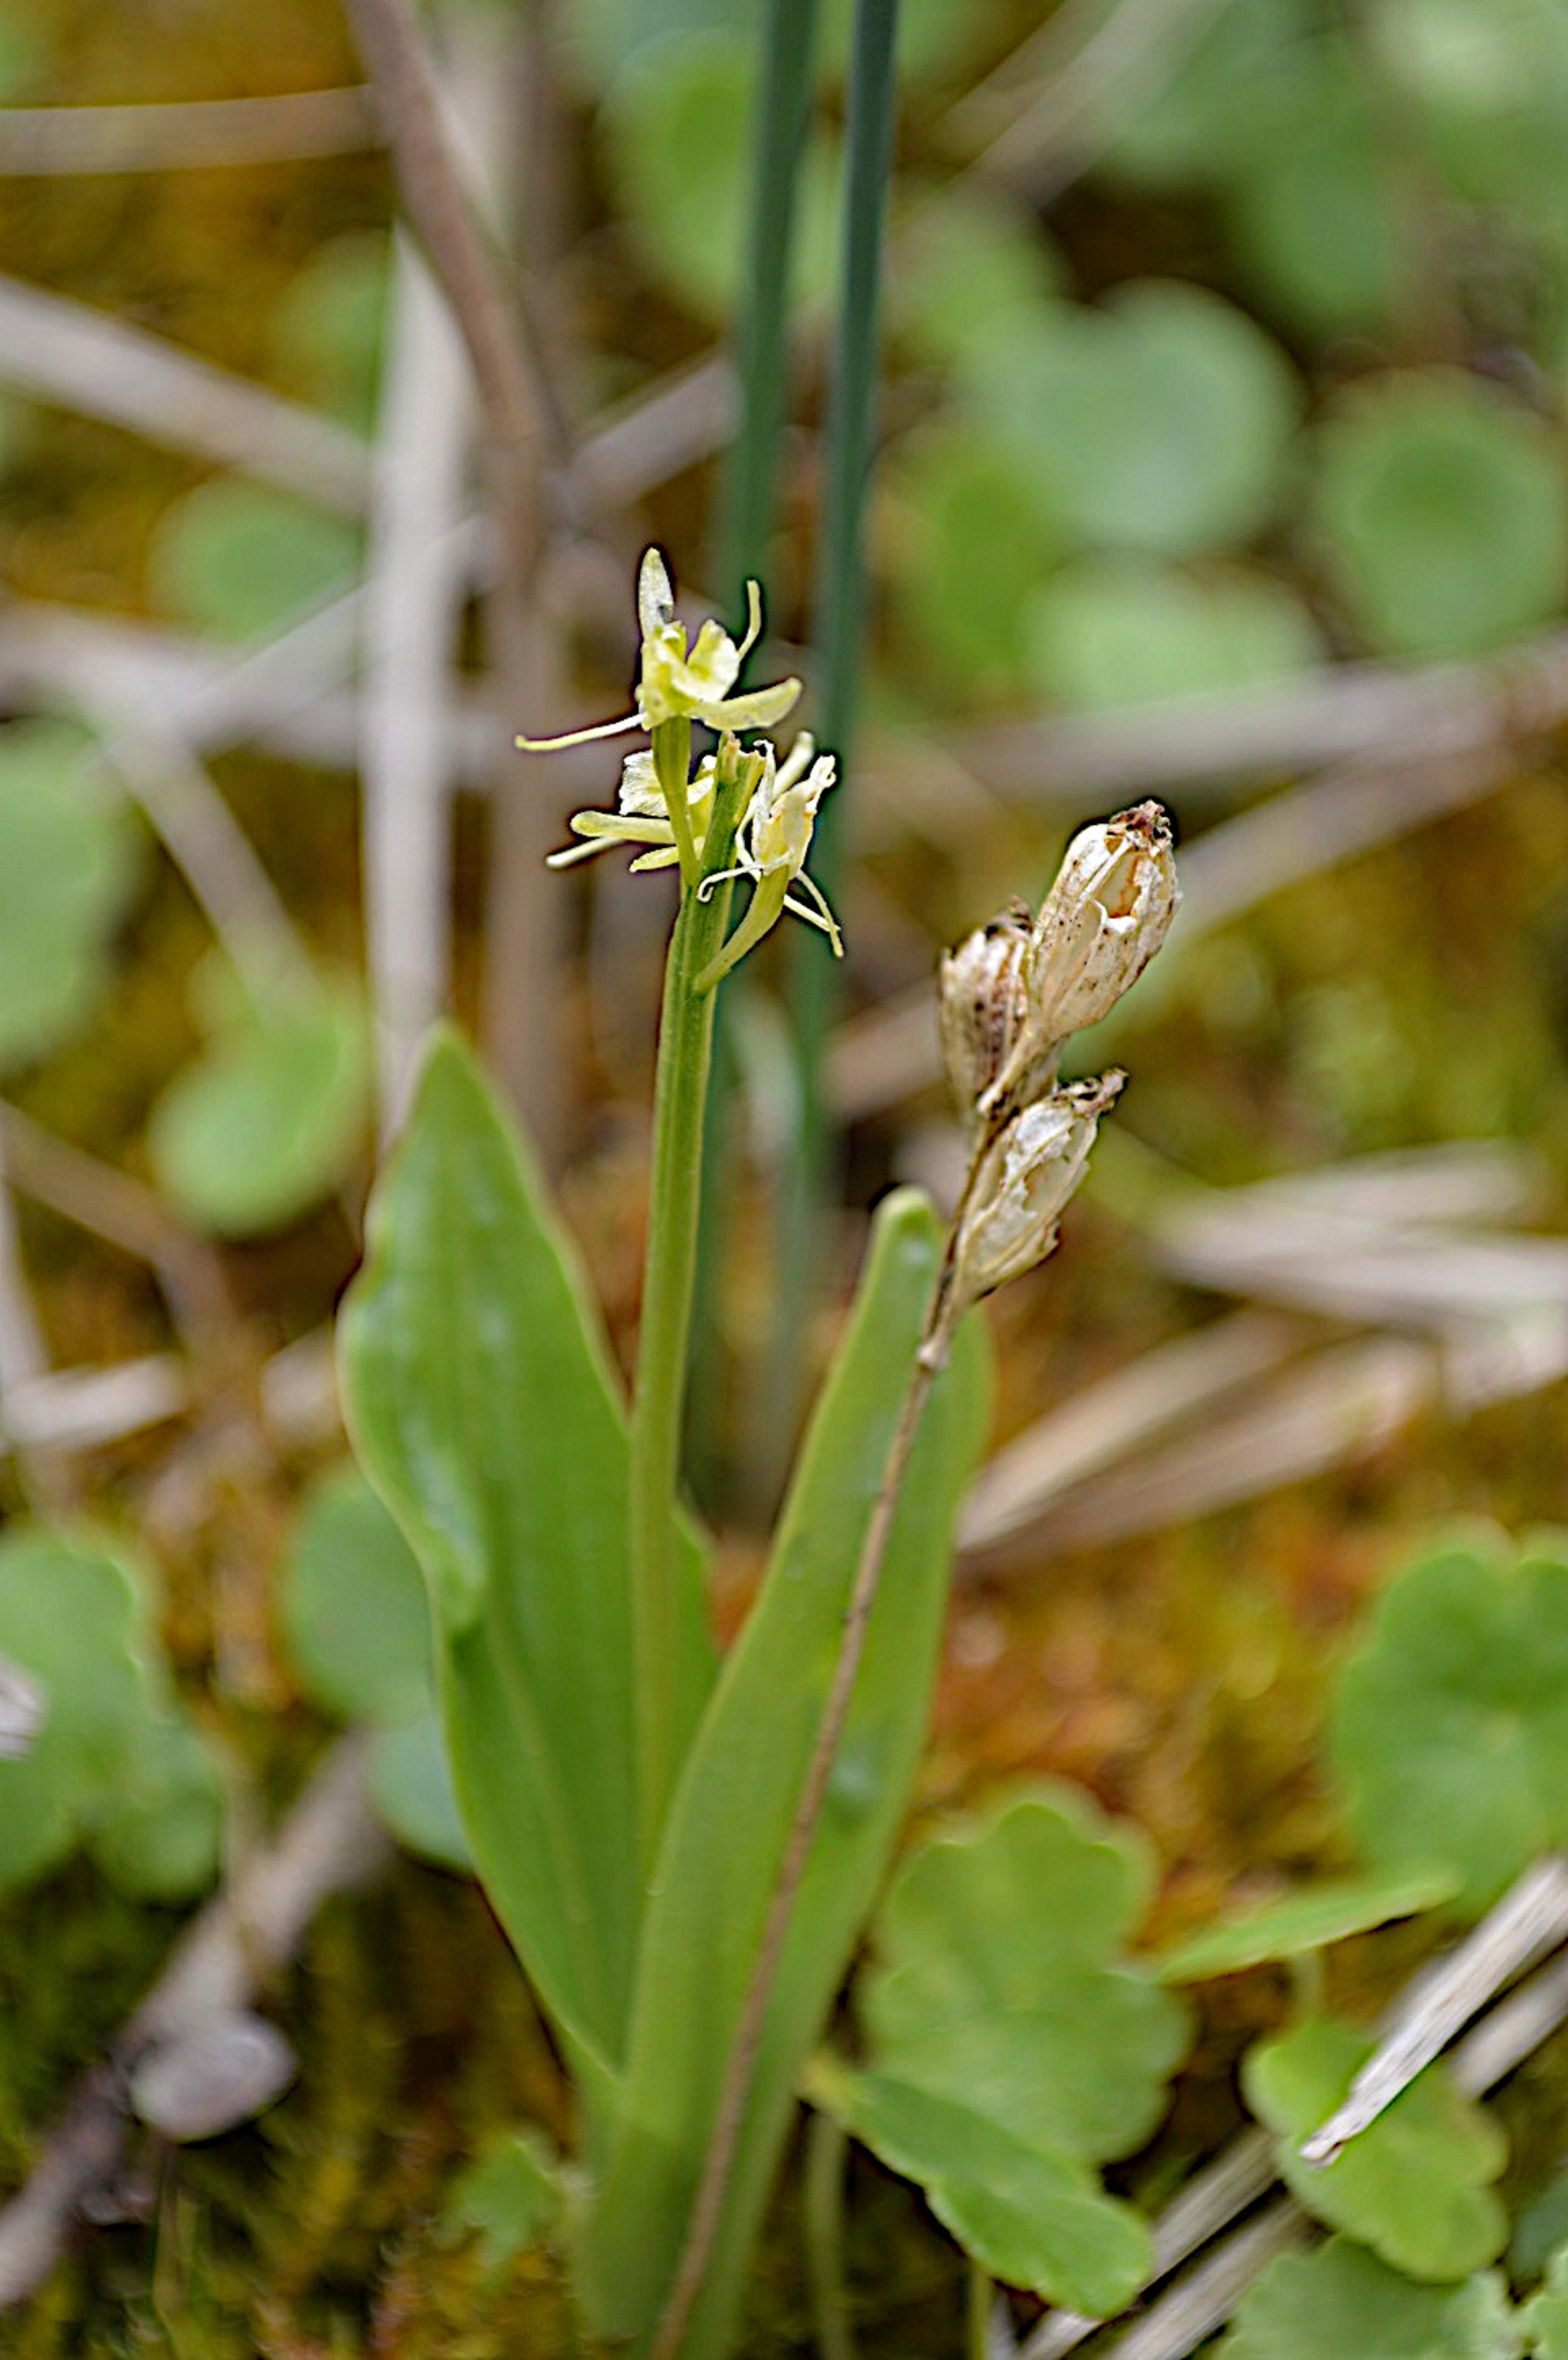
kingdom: Animalia
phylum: Arthropoda
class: Insecta
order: Coleoptera
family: Curculionidae
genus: Liparis
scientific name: Liparis loeselii
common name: Mygblomst
